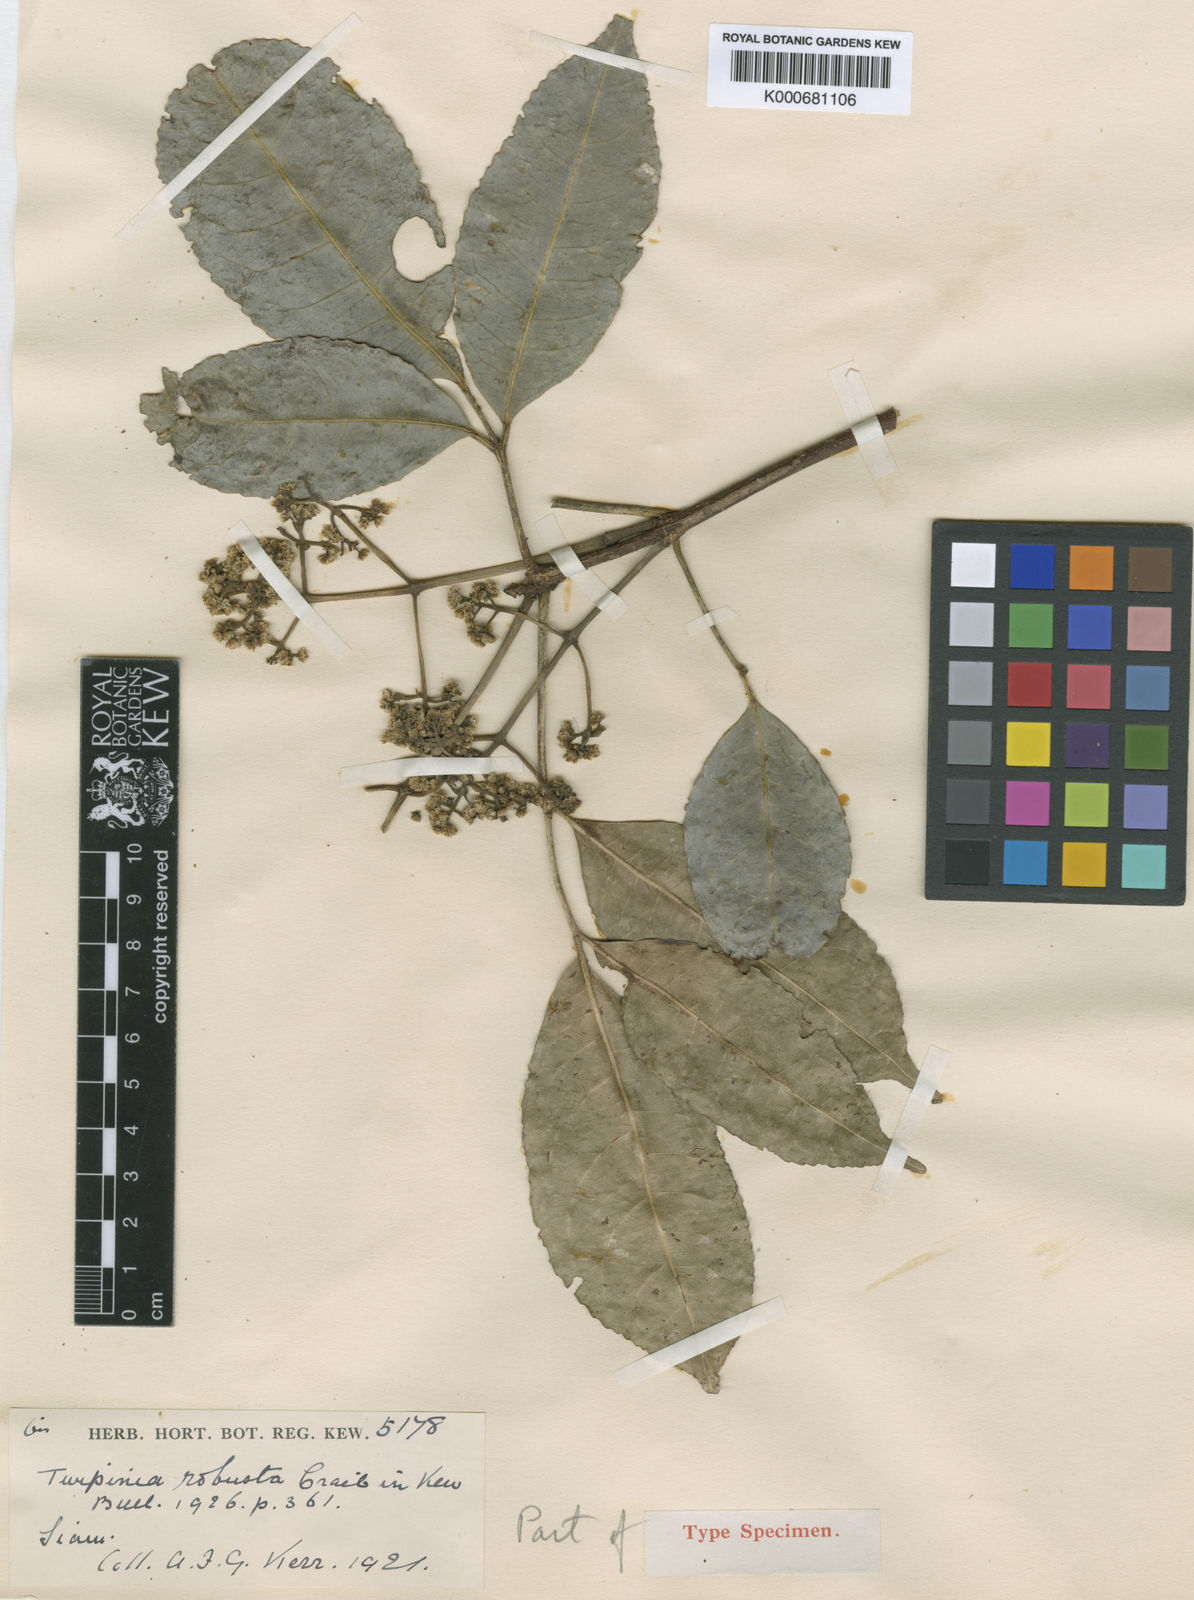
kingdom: Plantae
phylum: Tracheophyta
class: Magnoliopsida
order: Crossosomatales
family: Staphyleaceae
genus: Turpinia
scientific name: Turpinia cochinchinensis
